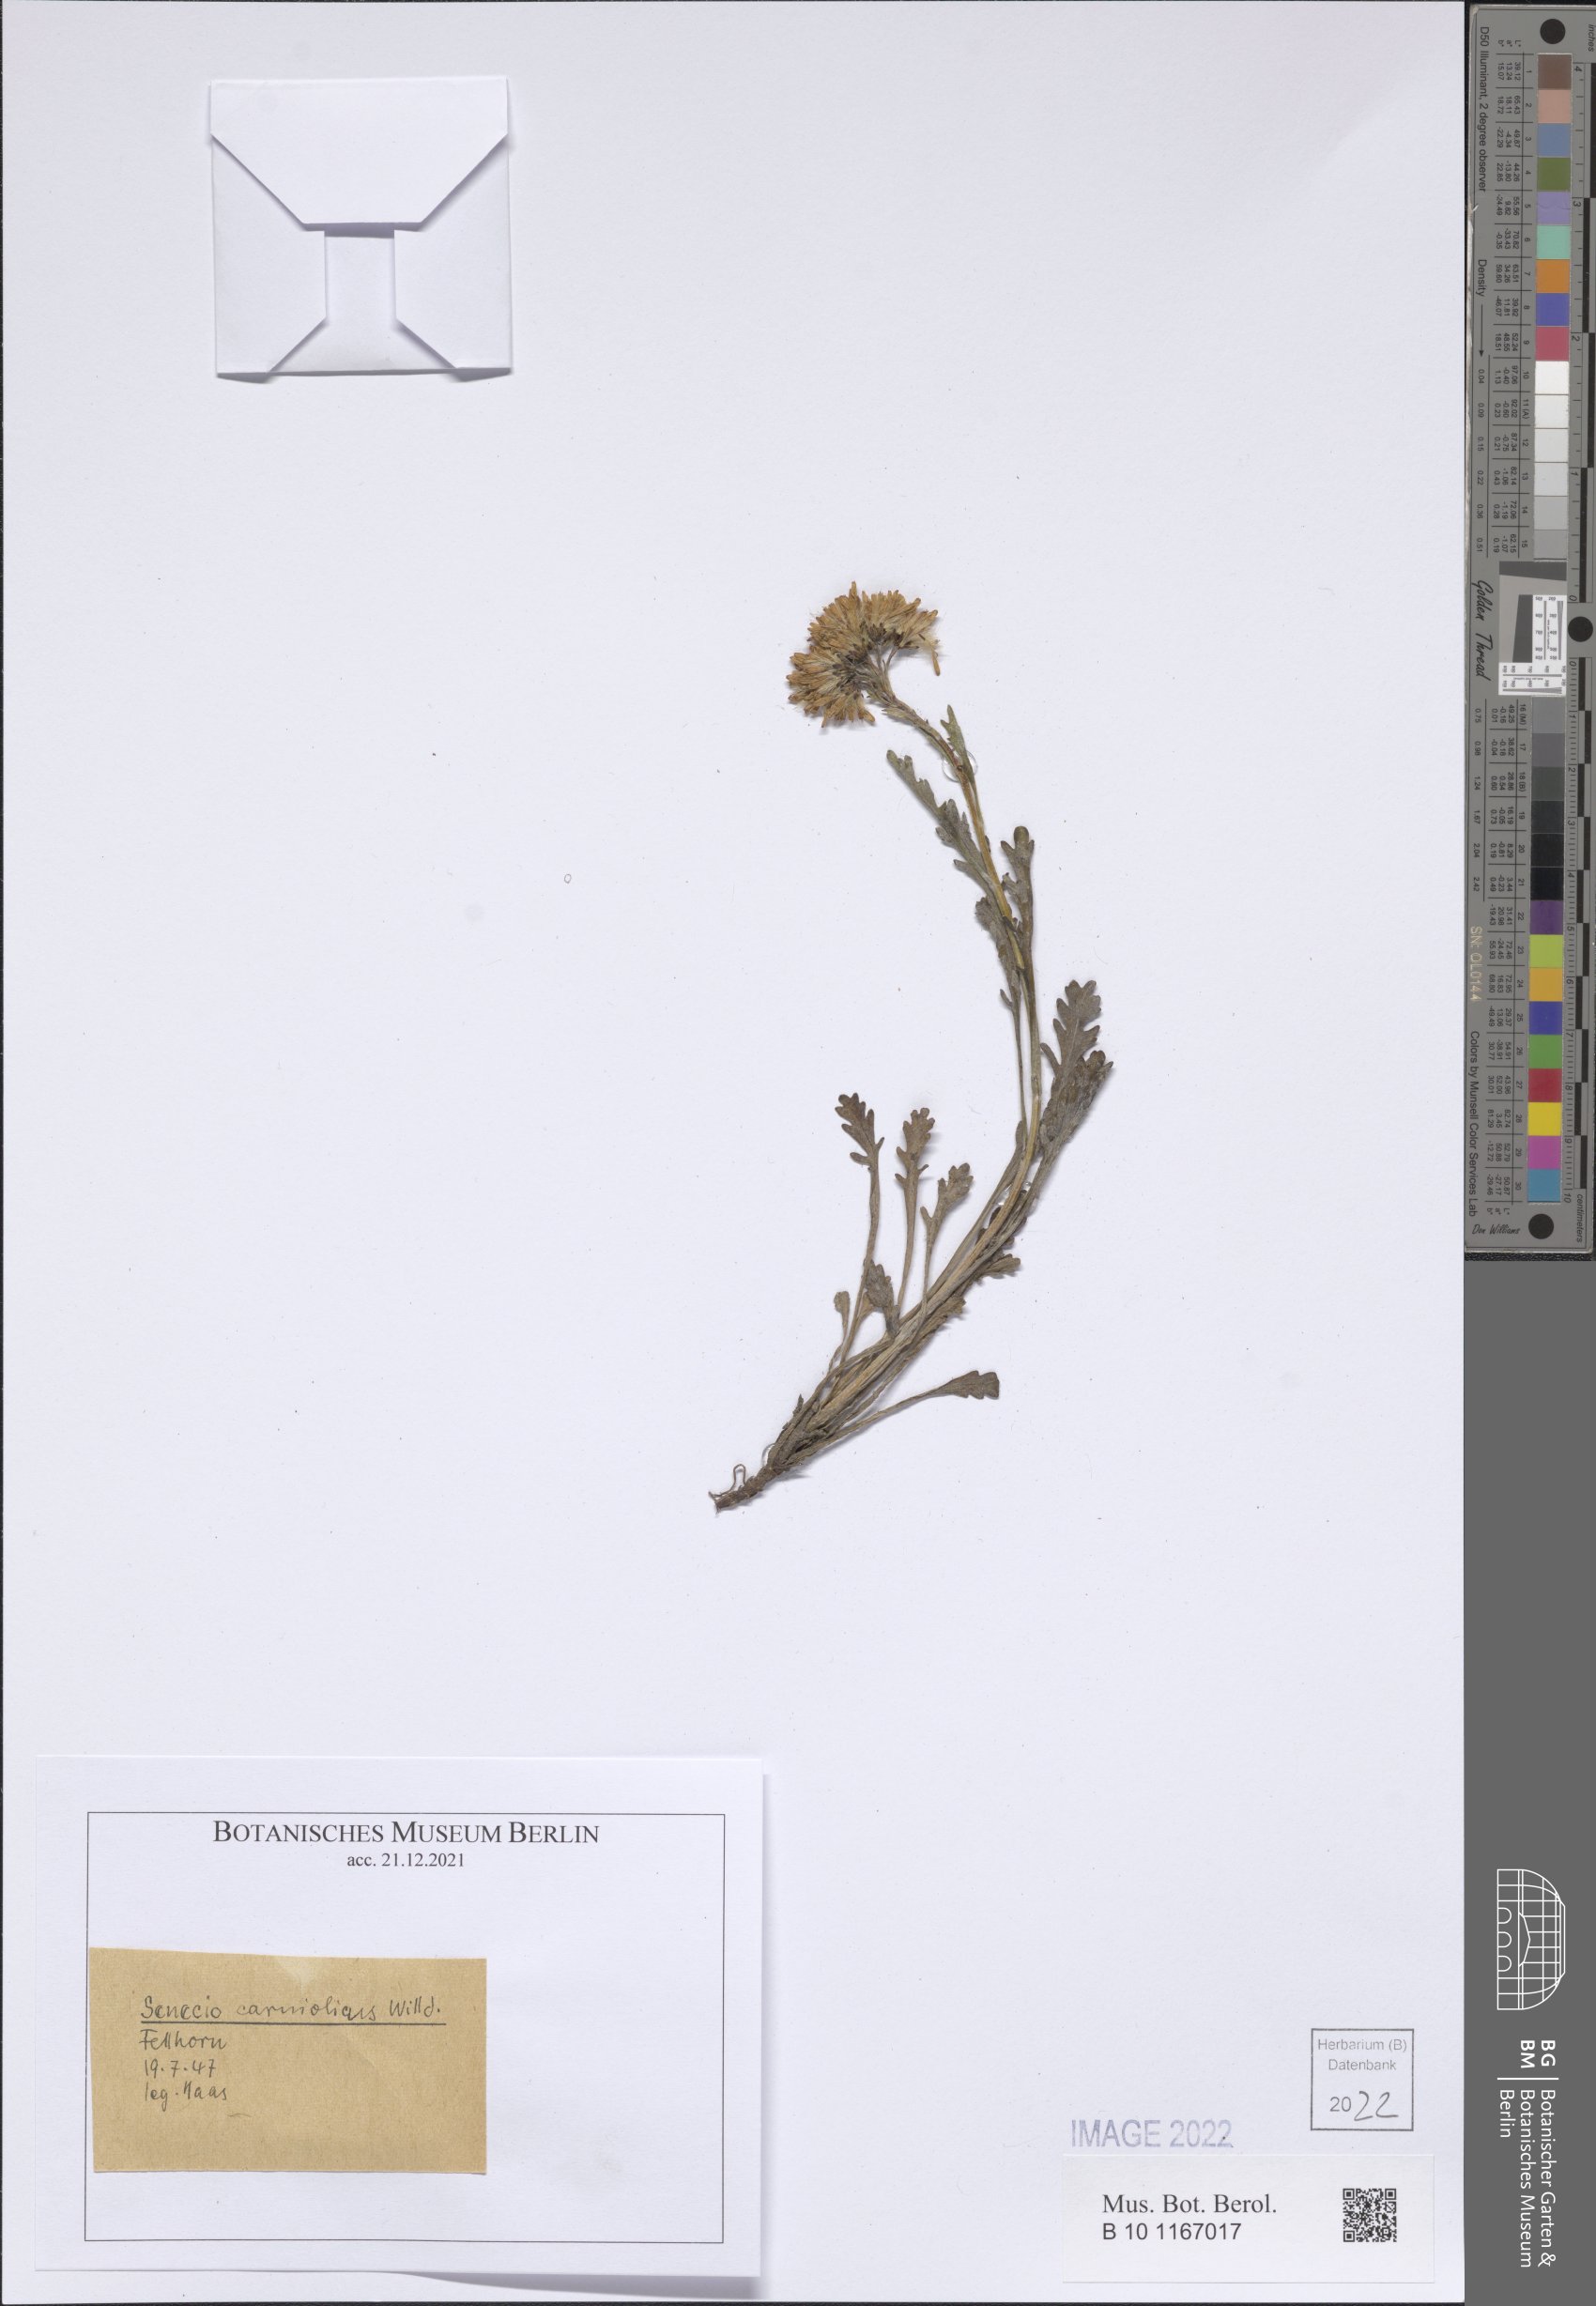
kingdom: Plantae
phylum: Tracheophyta
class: Magnoliopsida
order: Asterales
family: Asteraceae
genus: Jacobaea
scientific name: Jacobaea carniolica
